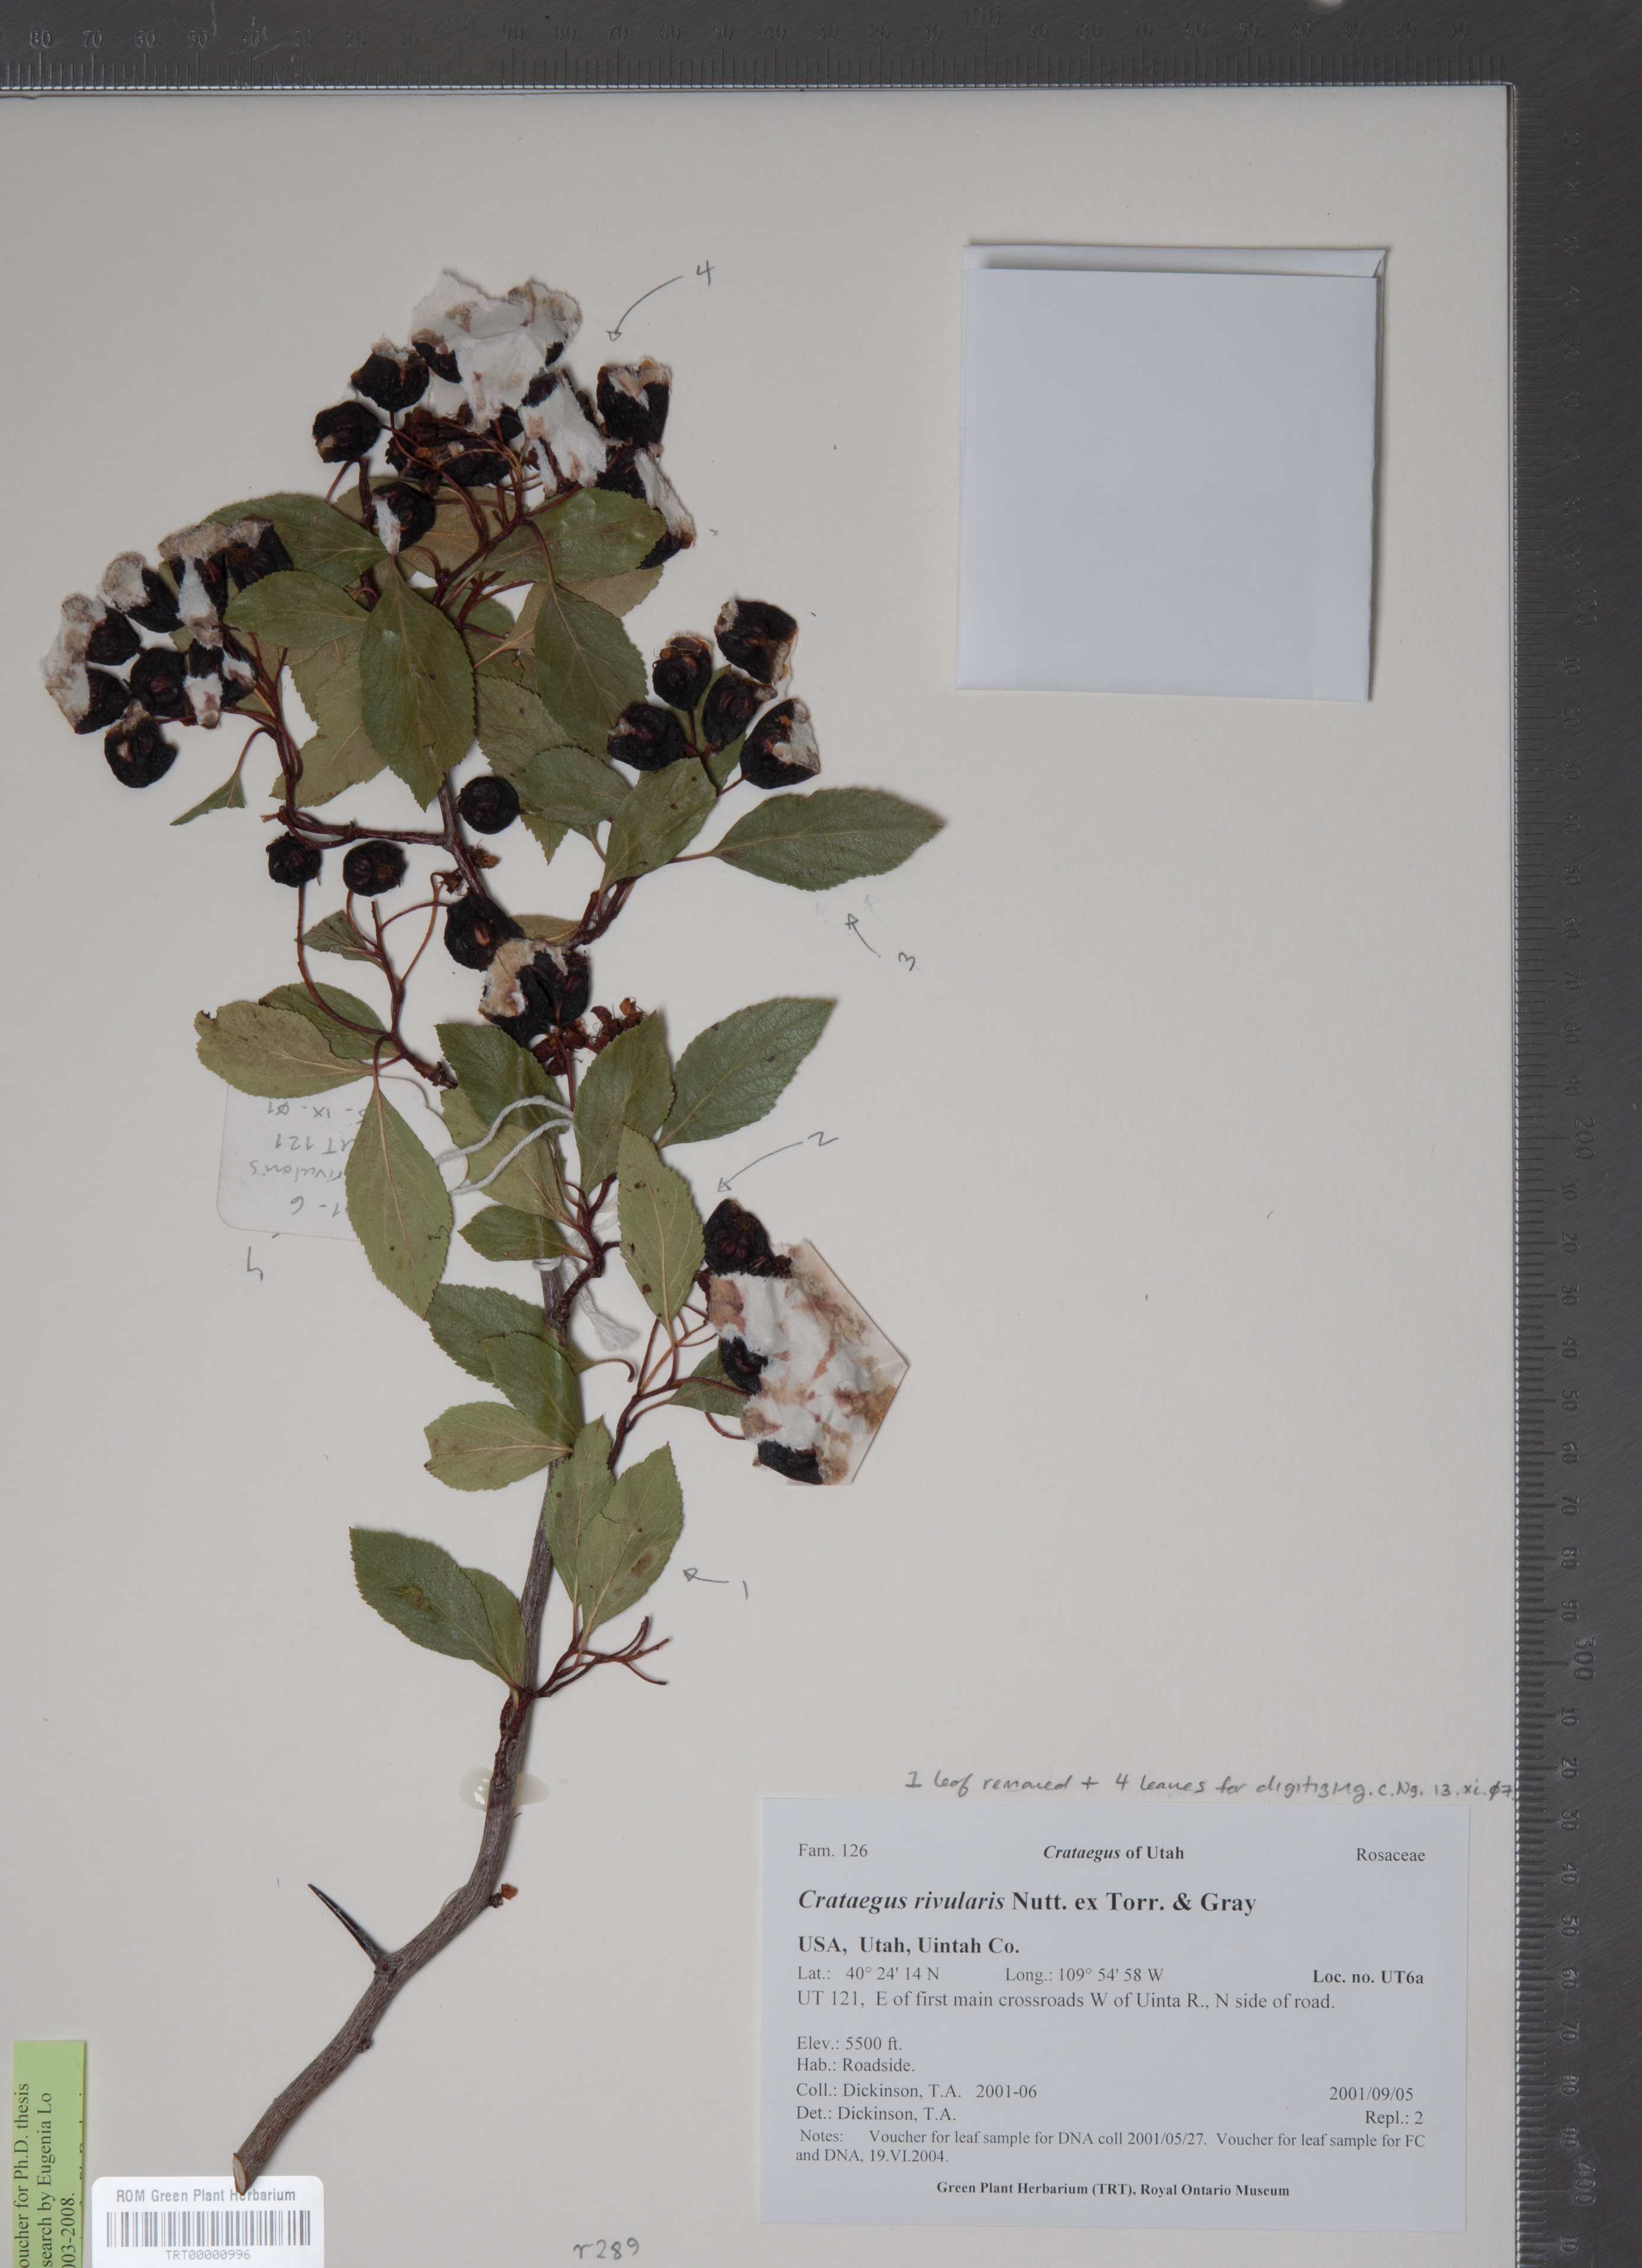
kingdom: Plantae
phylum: Tracheophyta
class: Magnoliopsida
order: Rosales
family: Rosaceae
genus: Crataegus
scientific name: Crataegus rivularis
